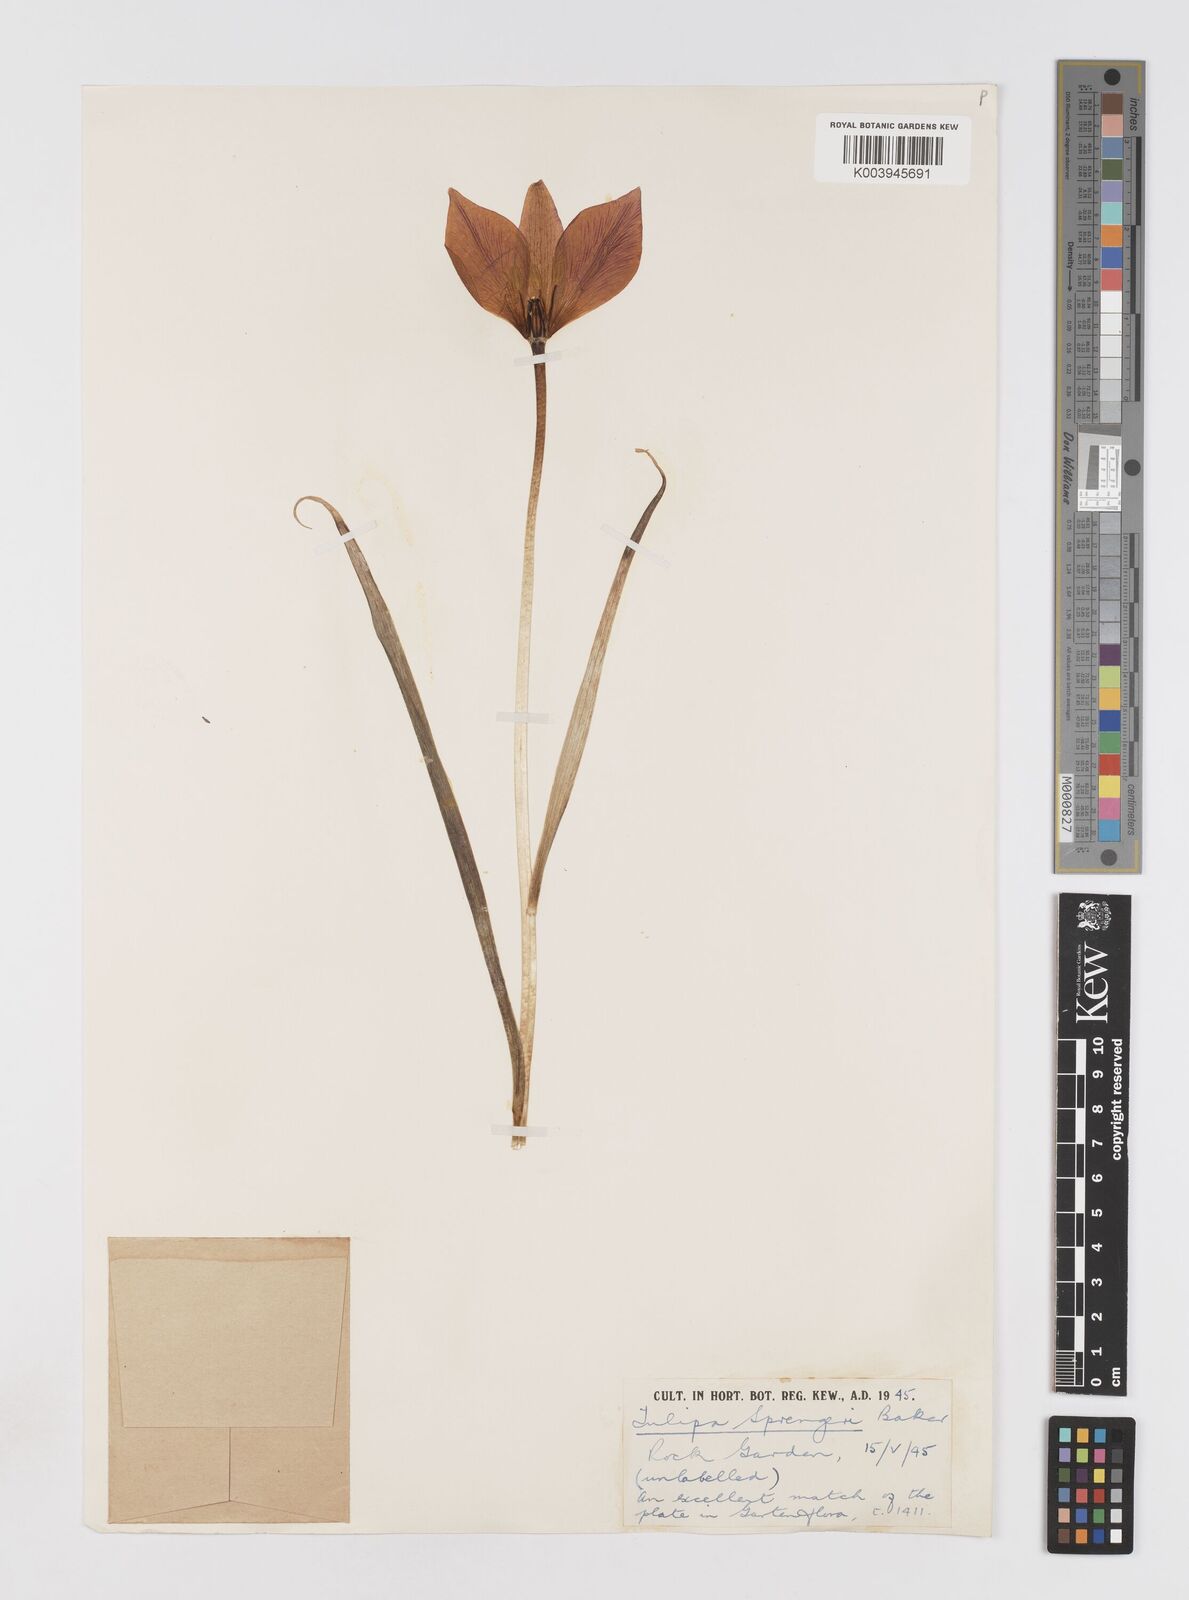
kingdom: Plantae
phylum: Tracheophyta
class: Liliopsida
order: Liliales
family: Liliaceae
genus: Tulipa
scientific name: Tulipa sprengeri
